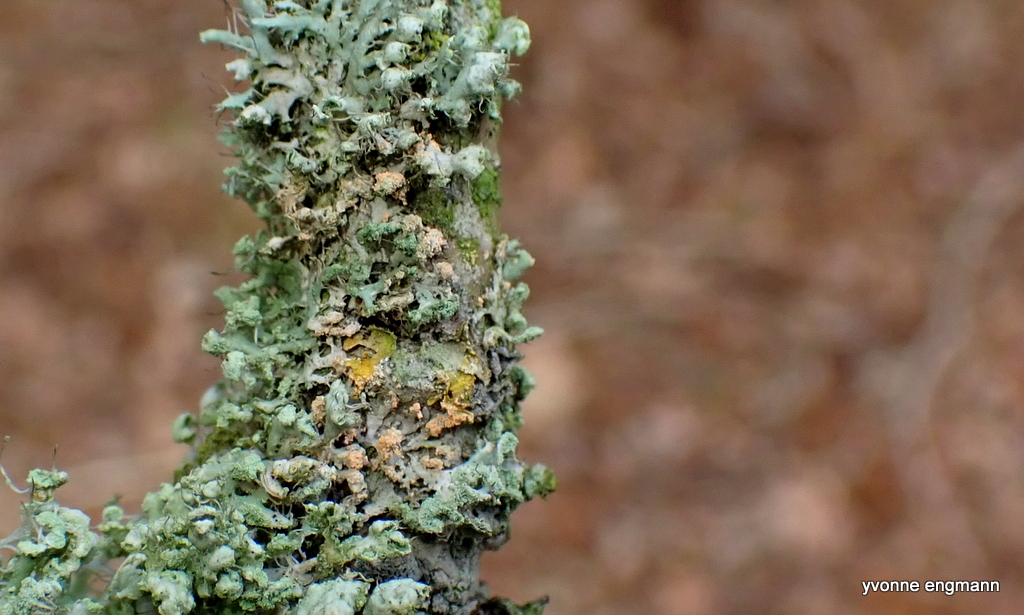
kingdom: Fungi
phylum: Basidiomycota
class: Agaricomycetes
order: Corticiales
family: Corticiaceae
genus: Erythricium
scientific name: Erythricium aurantiacum
